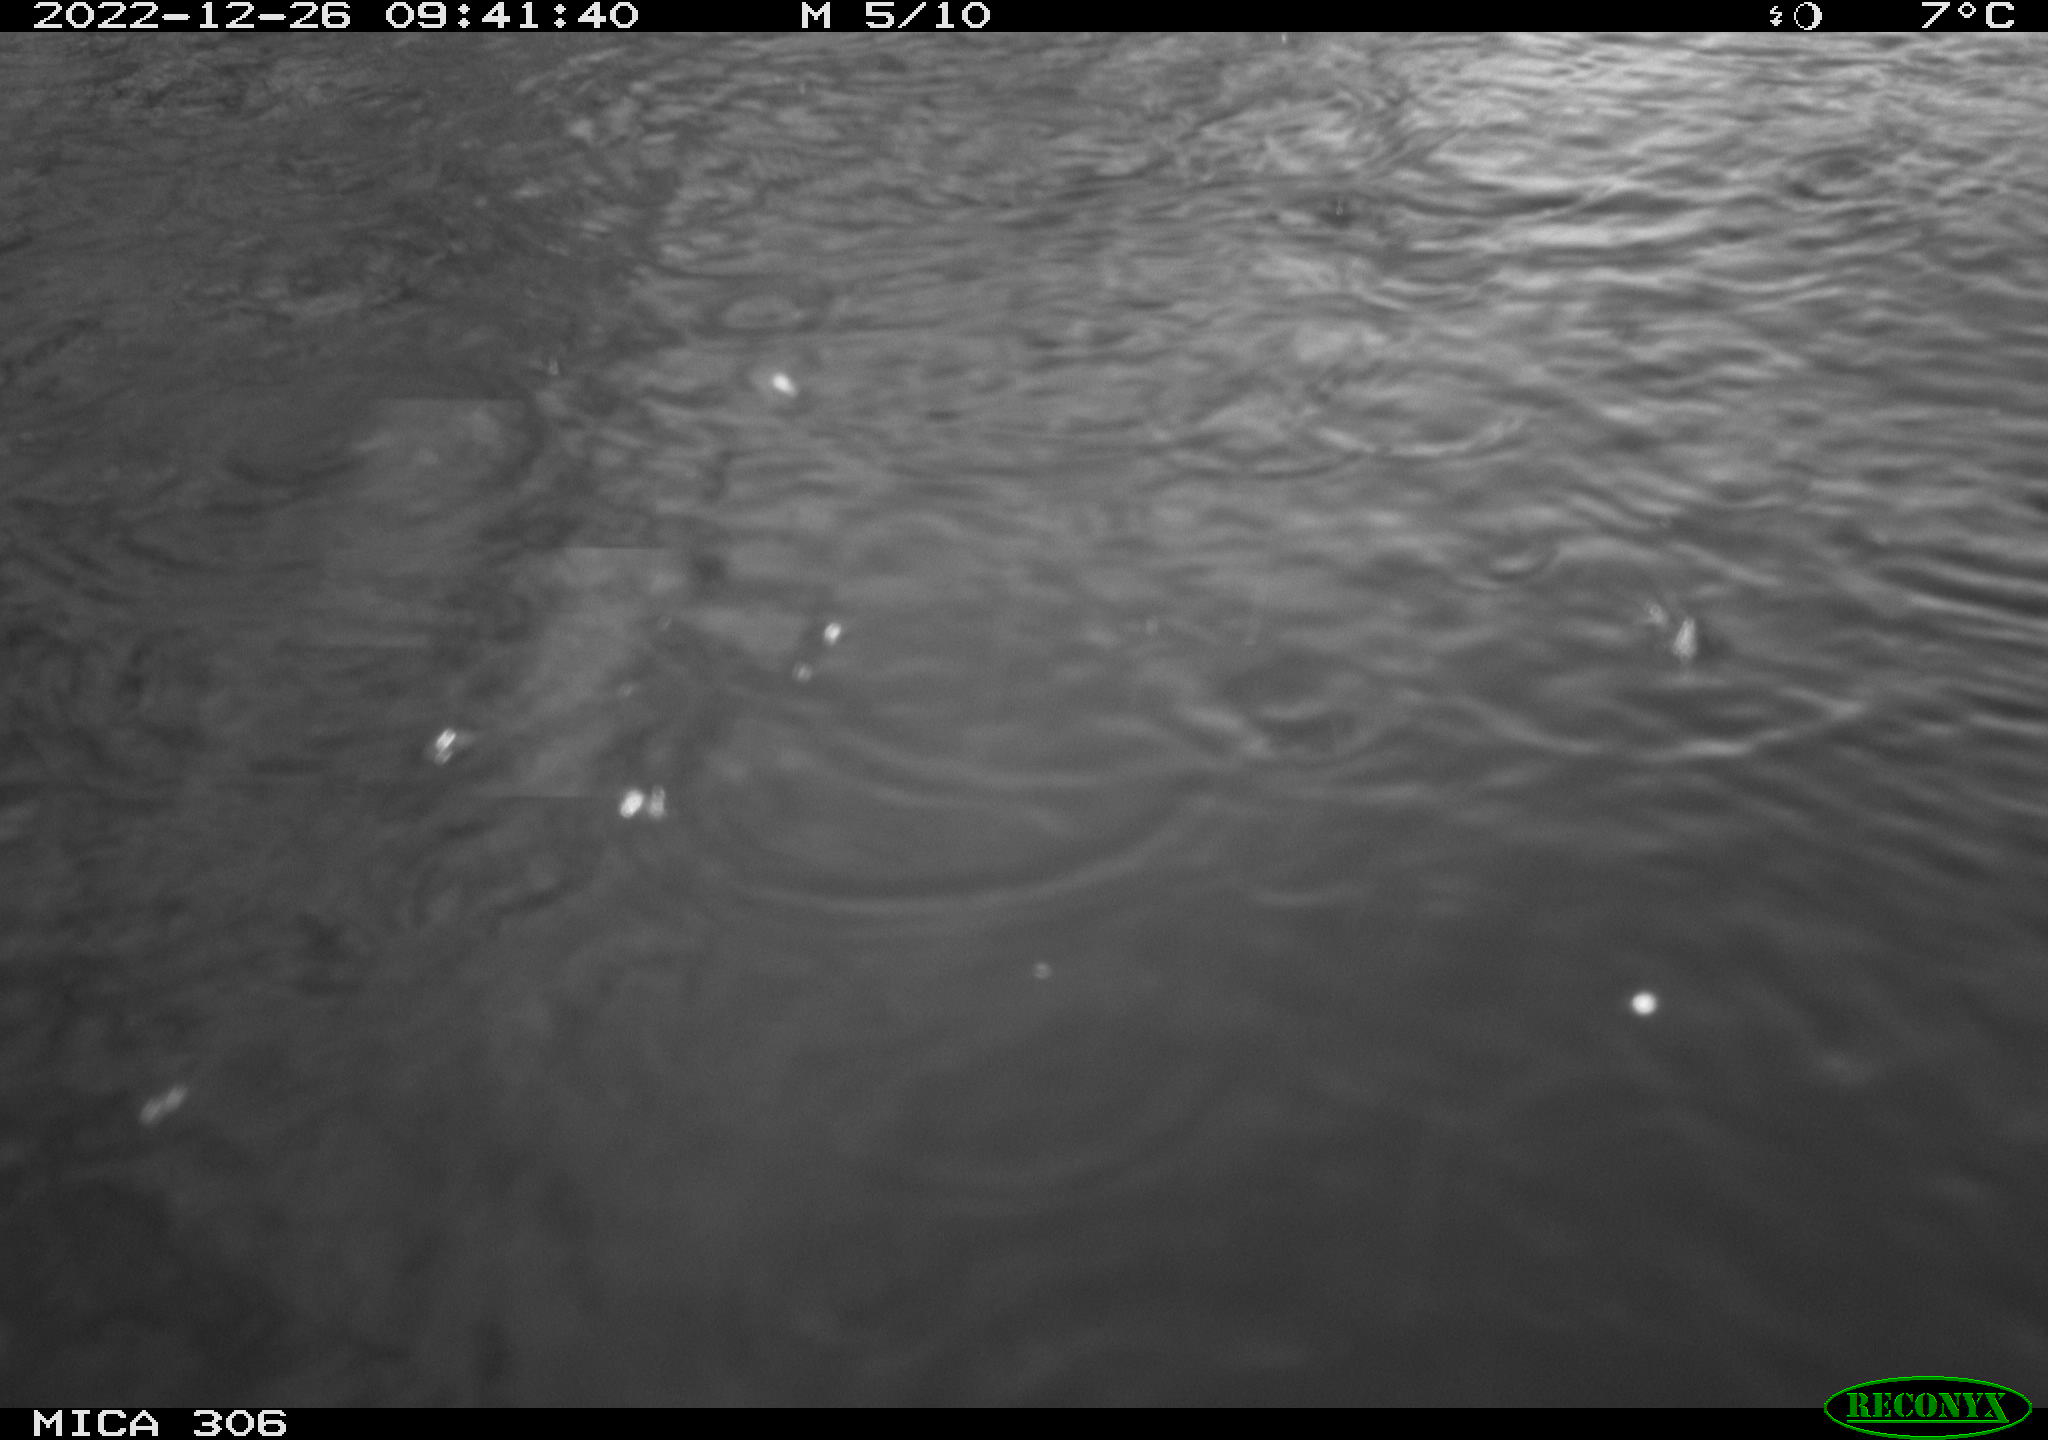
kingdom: Animalia
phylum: Chordata
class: Aves
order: Anseriformes
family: Anatidae
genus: Anas
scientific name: Anas
